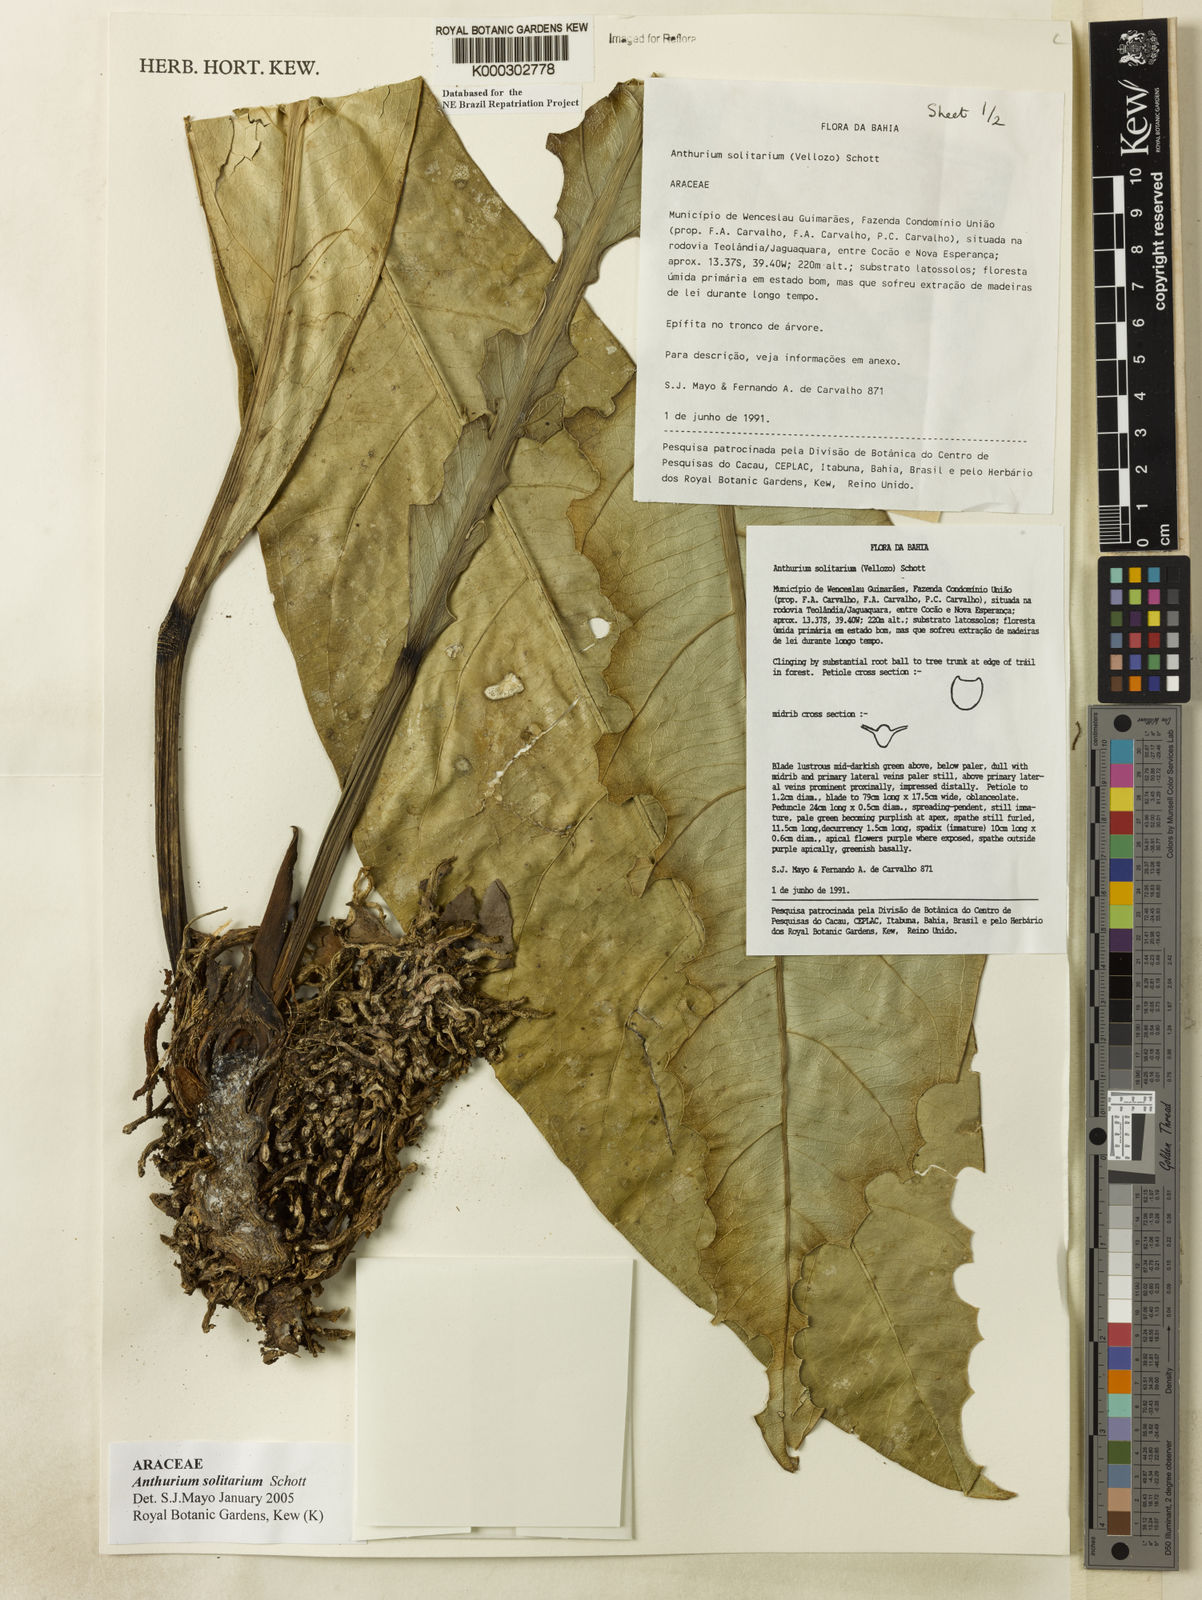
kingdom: Plantae
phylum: Tracheophyta
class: Liliopsida
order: Alismatales
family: Araceae
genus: Anthurium
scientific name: Anthurium solitarium
